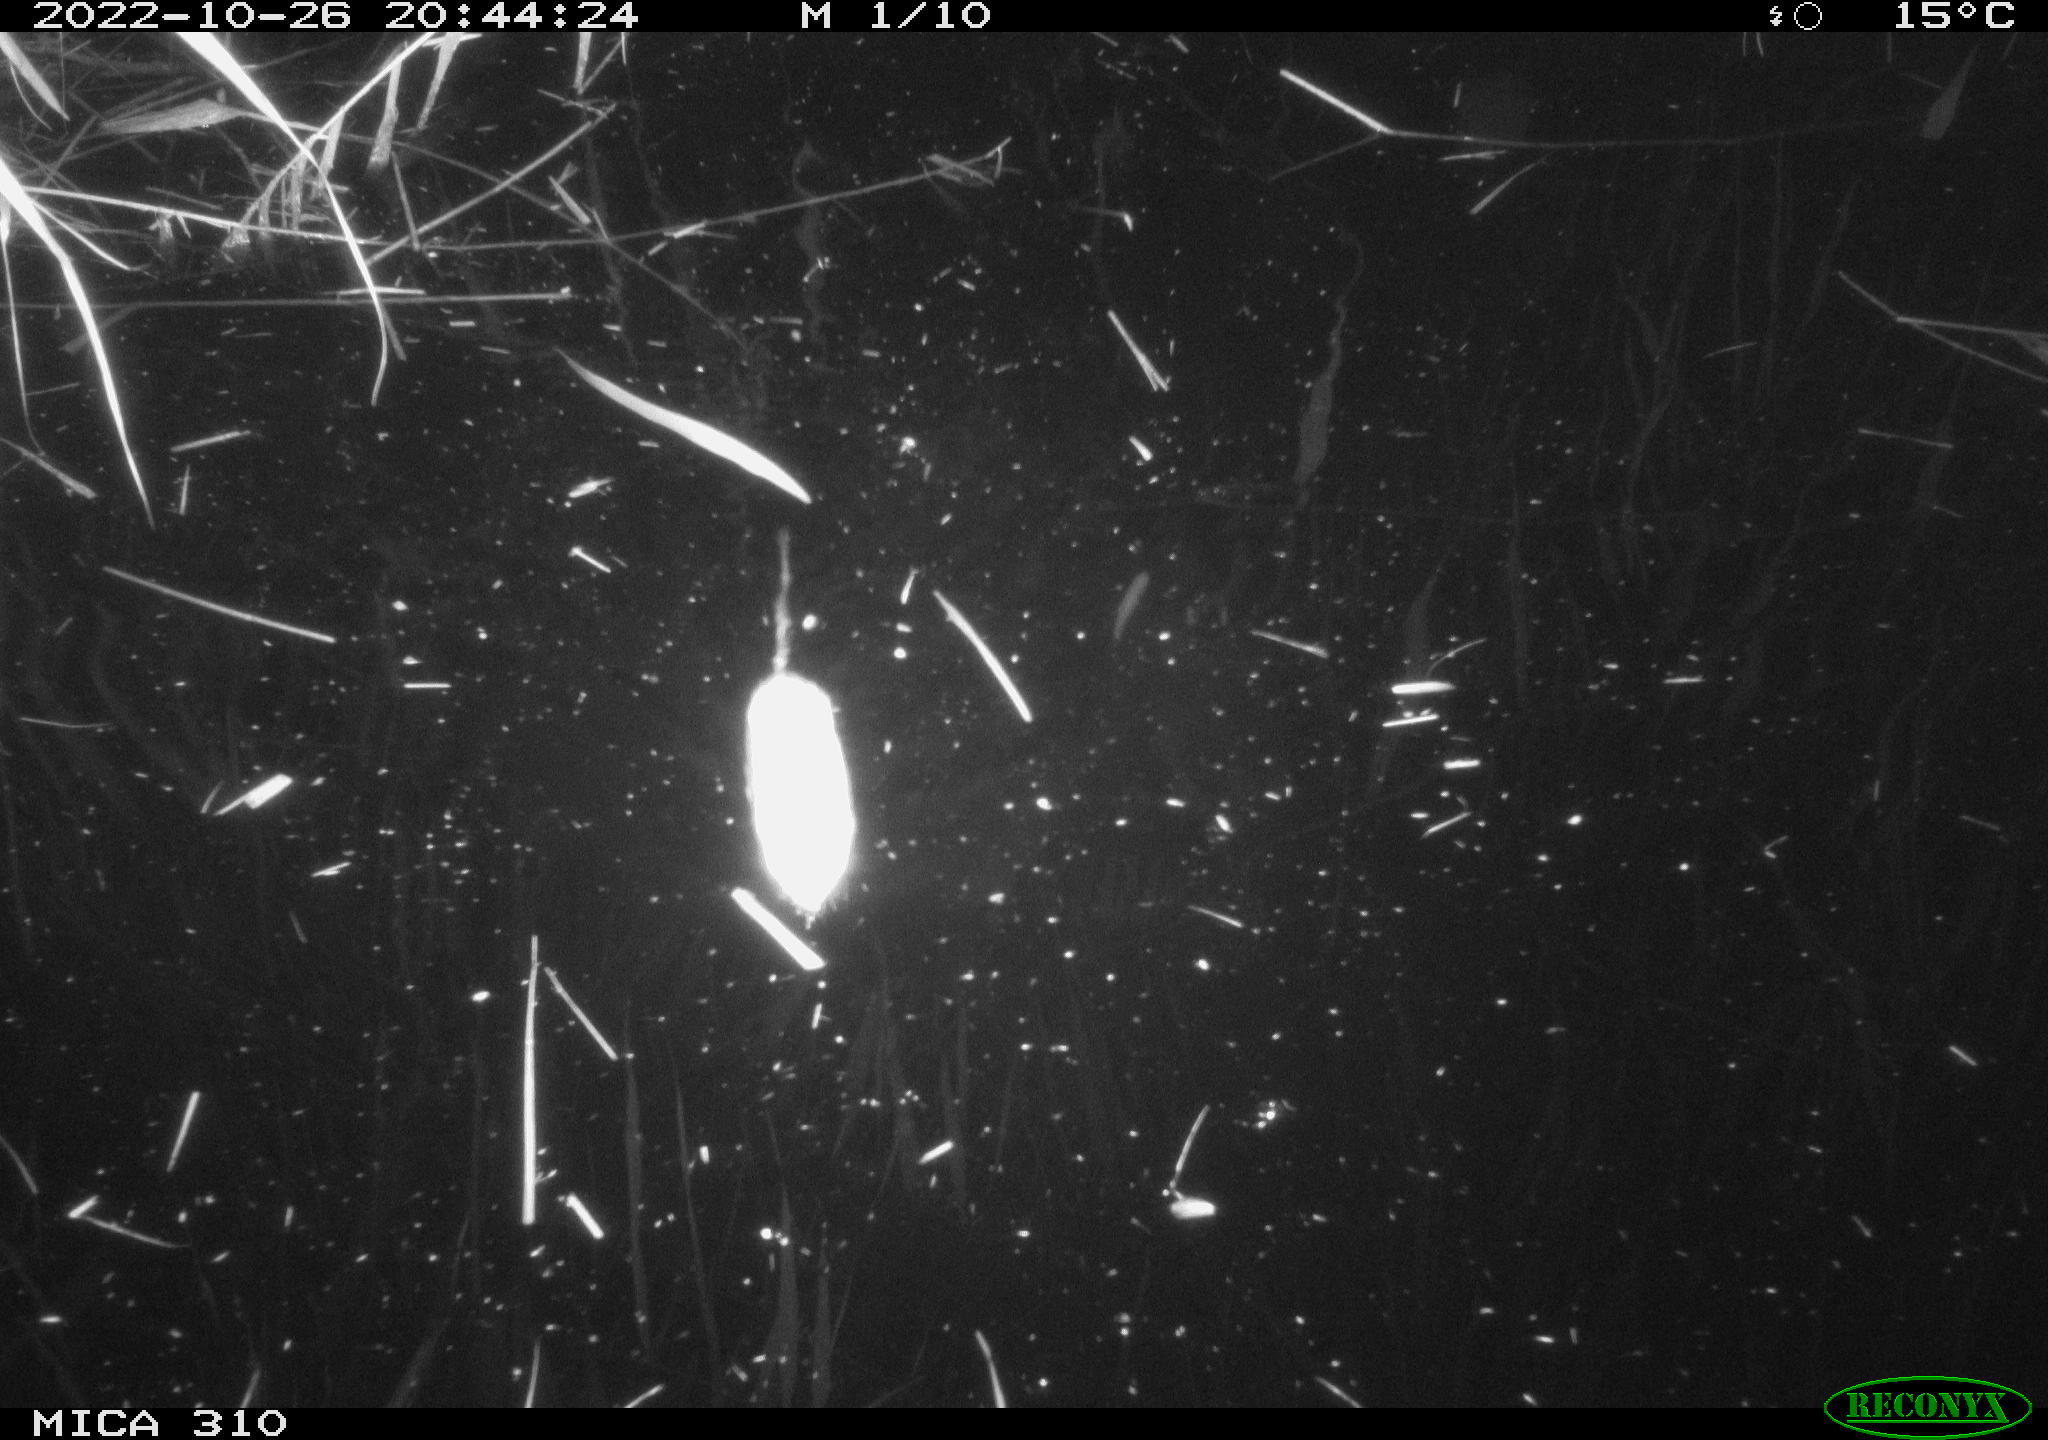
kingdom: Animalia
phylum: Chordata
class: Mammalia
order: Rodentia
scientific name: Rodentia
